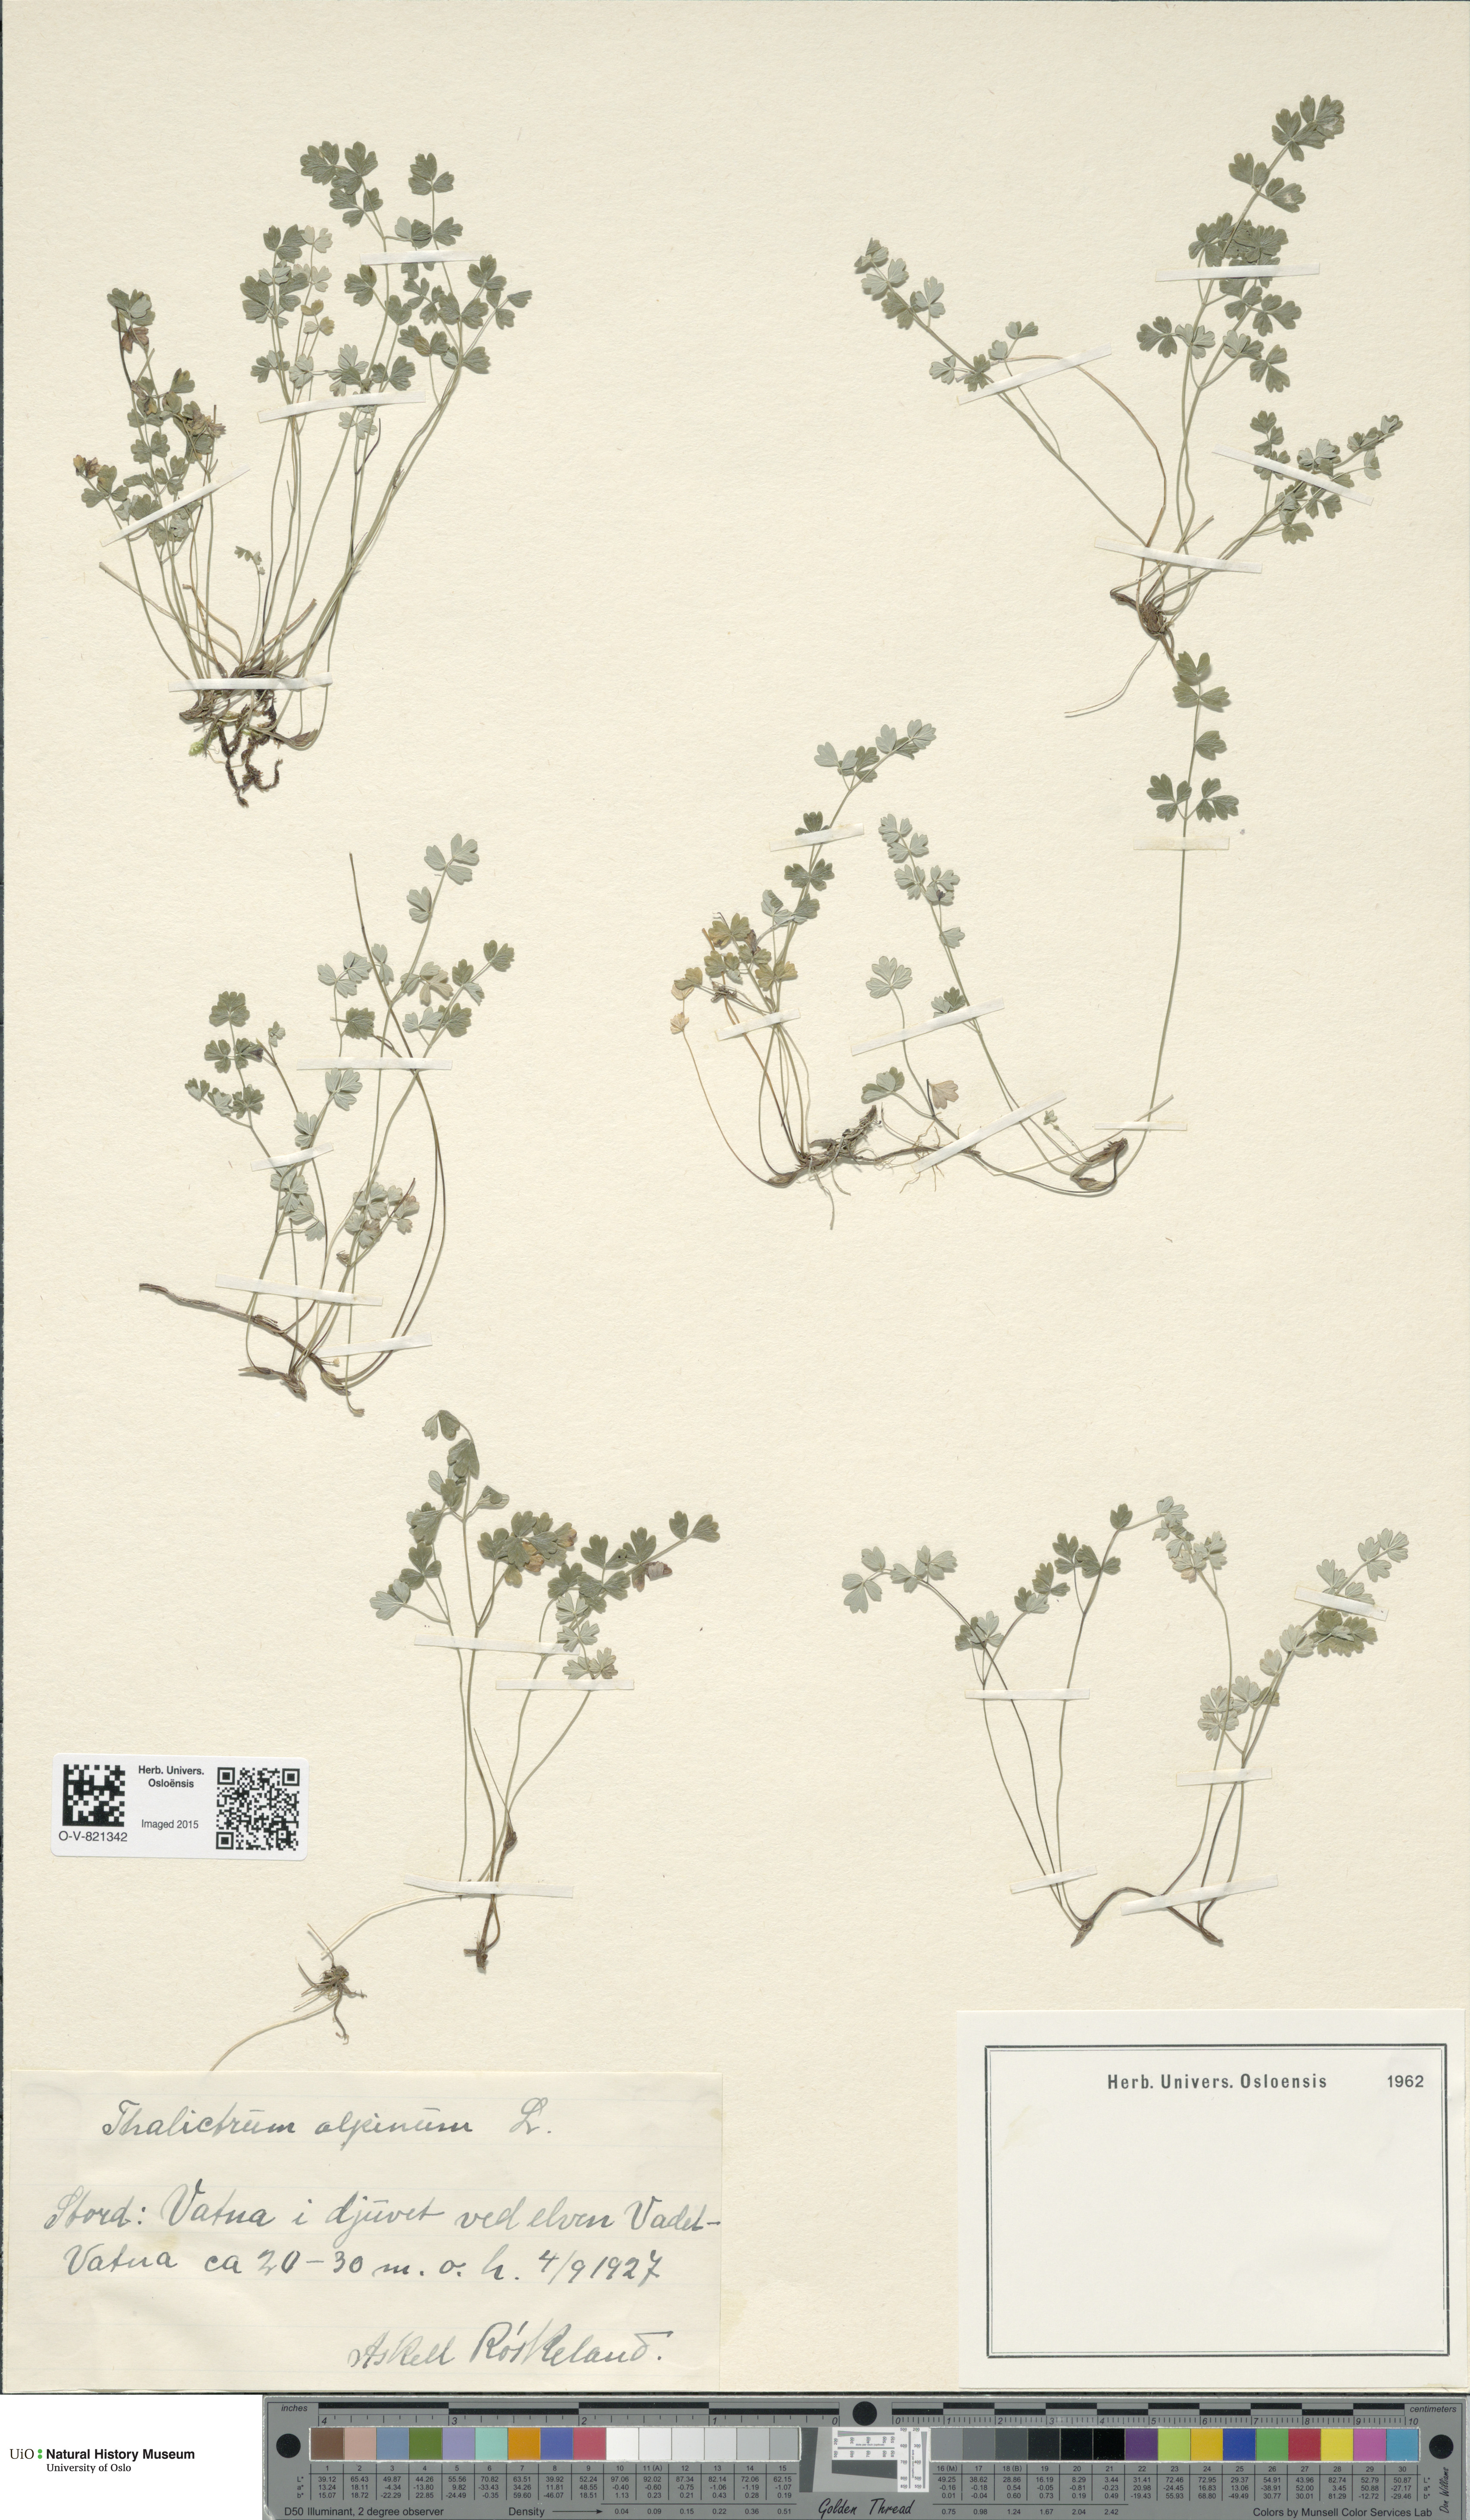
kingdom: Plantae
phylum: Tracheophyta
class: Magnoliopsida
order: Ranunculales
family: Ranunculaceae
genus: Thalictrum
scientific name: Thalictrum alpinum
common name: Alpine meadow-rue
